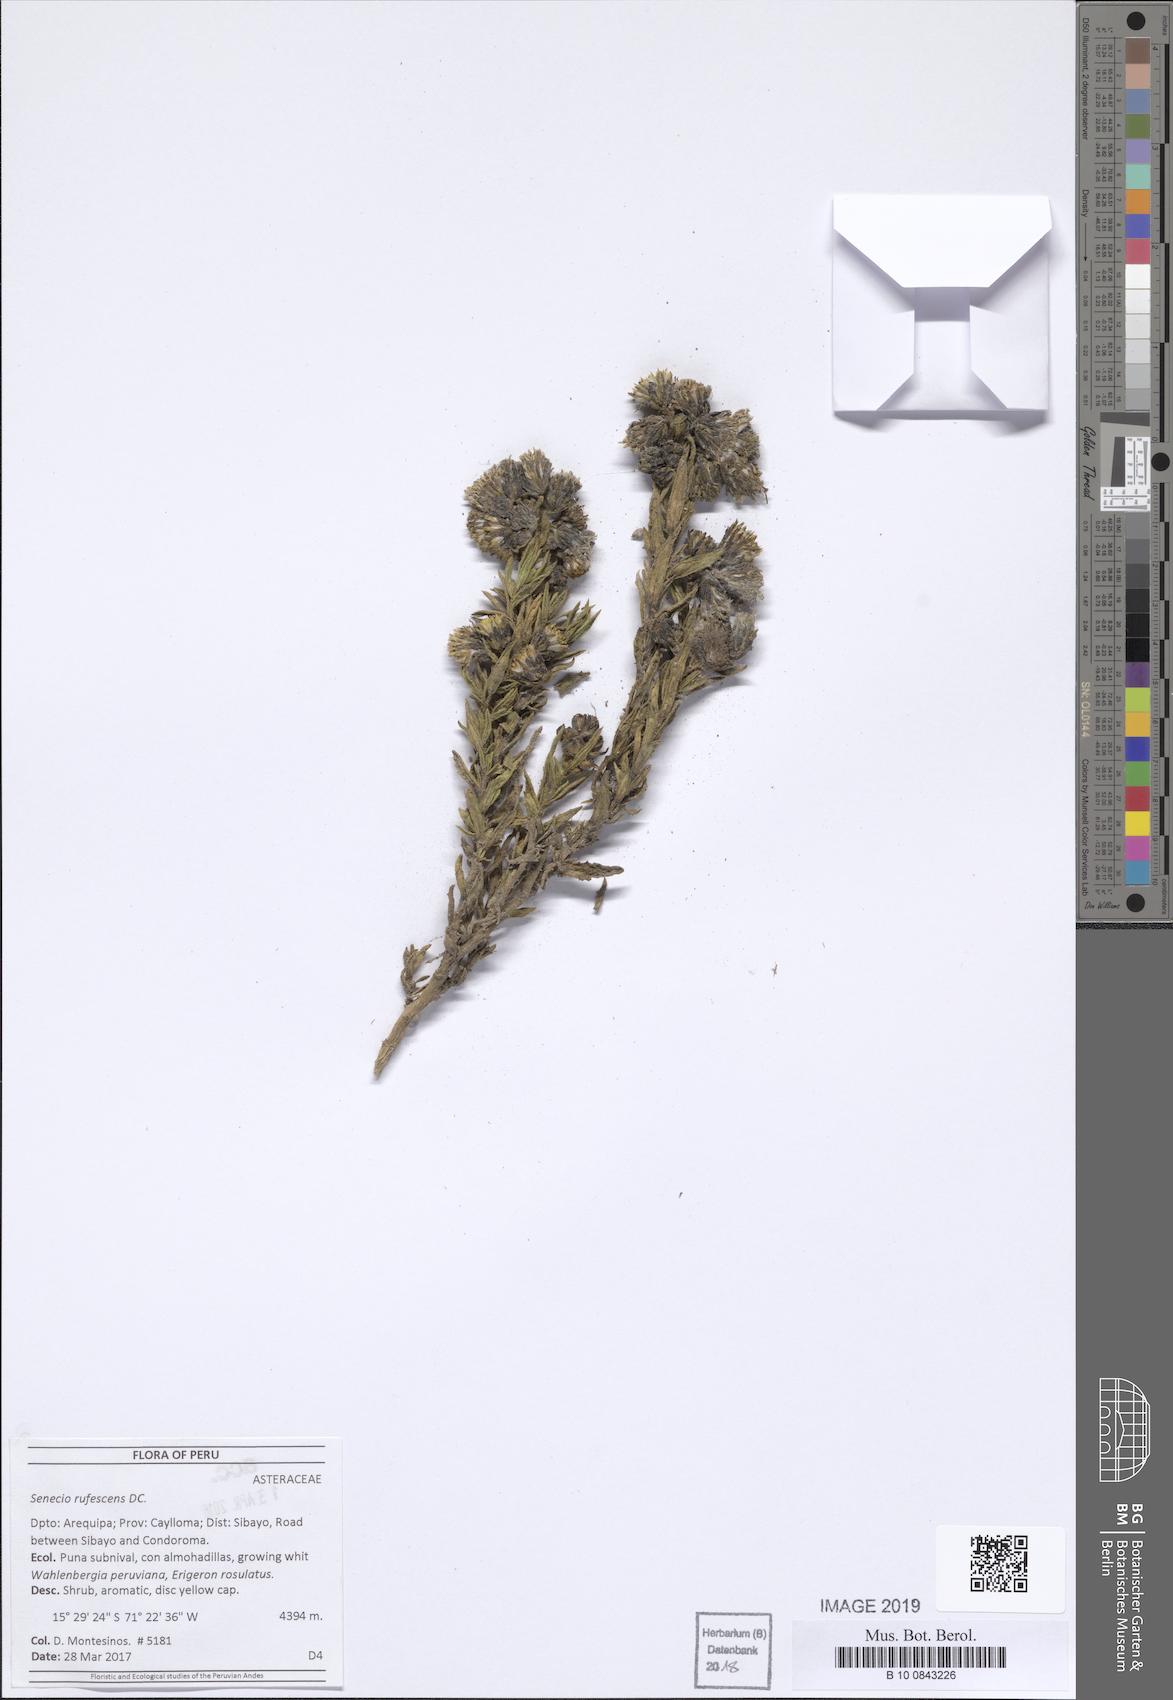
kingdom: Plantae
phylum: Tracheophyta
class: Magnoliopsida
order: Asterales
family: Asteraceae
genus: Senecio
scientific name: Senecio rufescens
